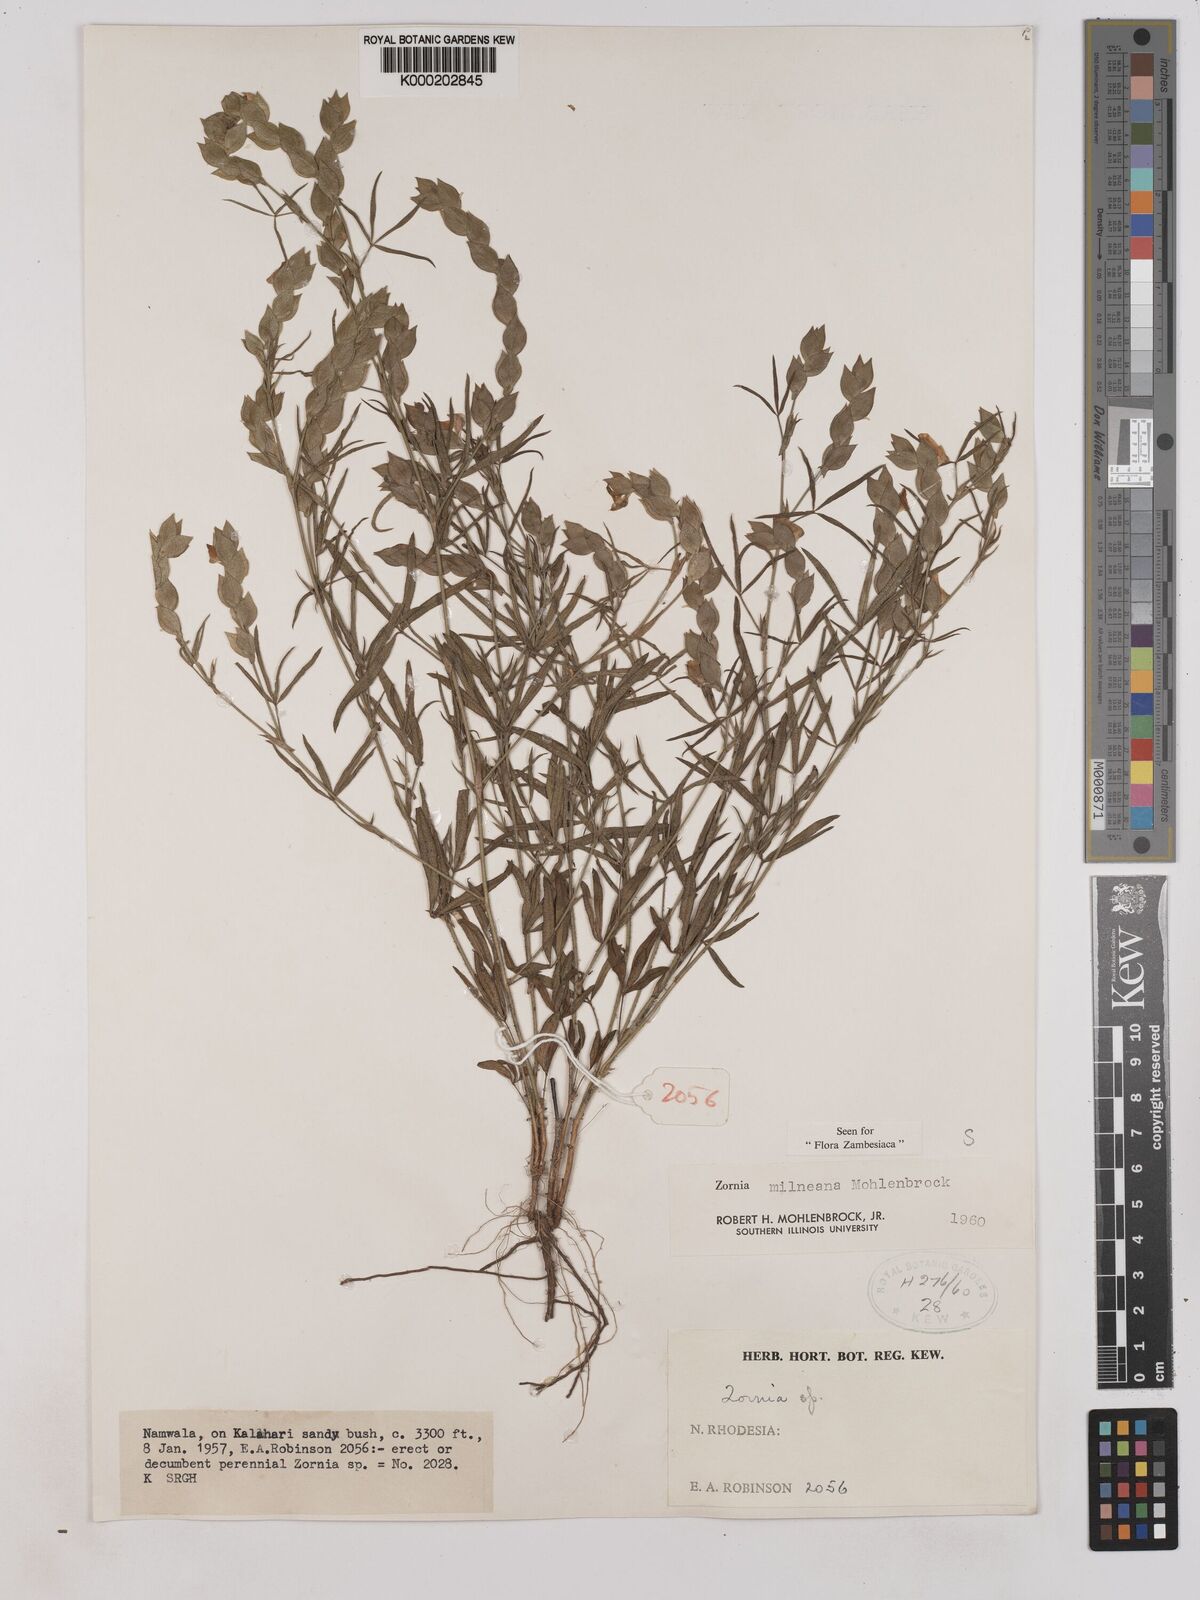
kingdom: Plantae
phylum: Tracheophyta
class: Magnoliopsida
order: Fabales
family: Fabaceae
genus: Zornia
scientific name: Zornia milneana
